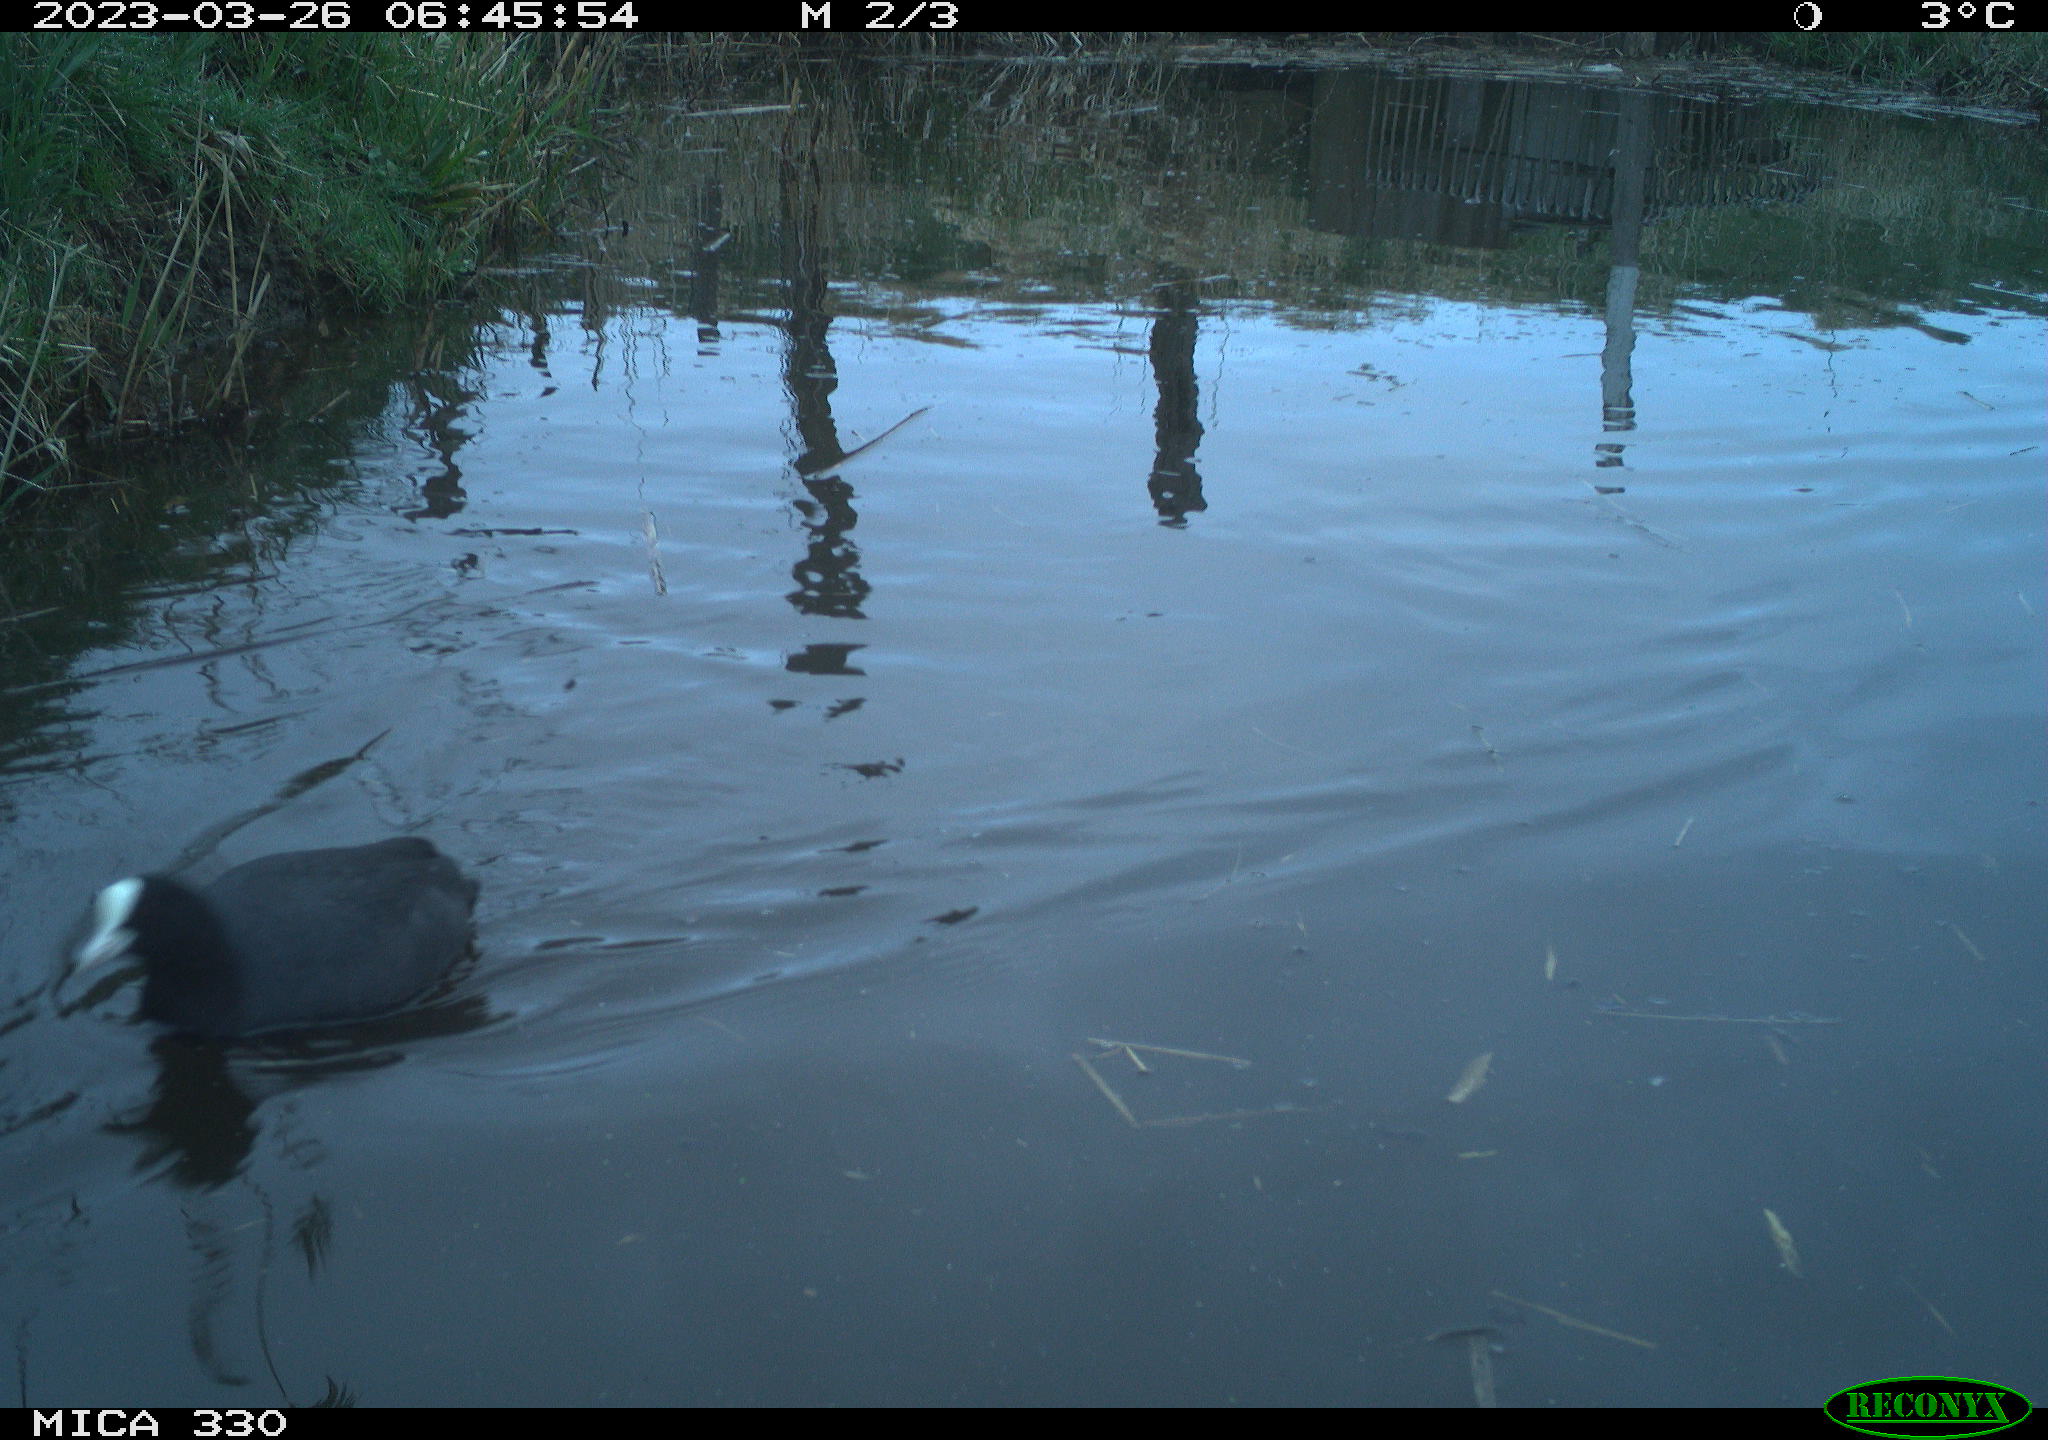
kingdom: Animalia
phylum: Chordata
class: Aves
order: Gruiformes
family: Rallidae
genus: Fulica
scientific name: Fulica atra
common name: Eurasian coot
